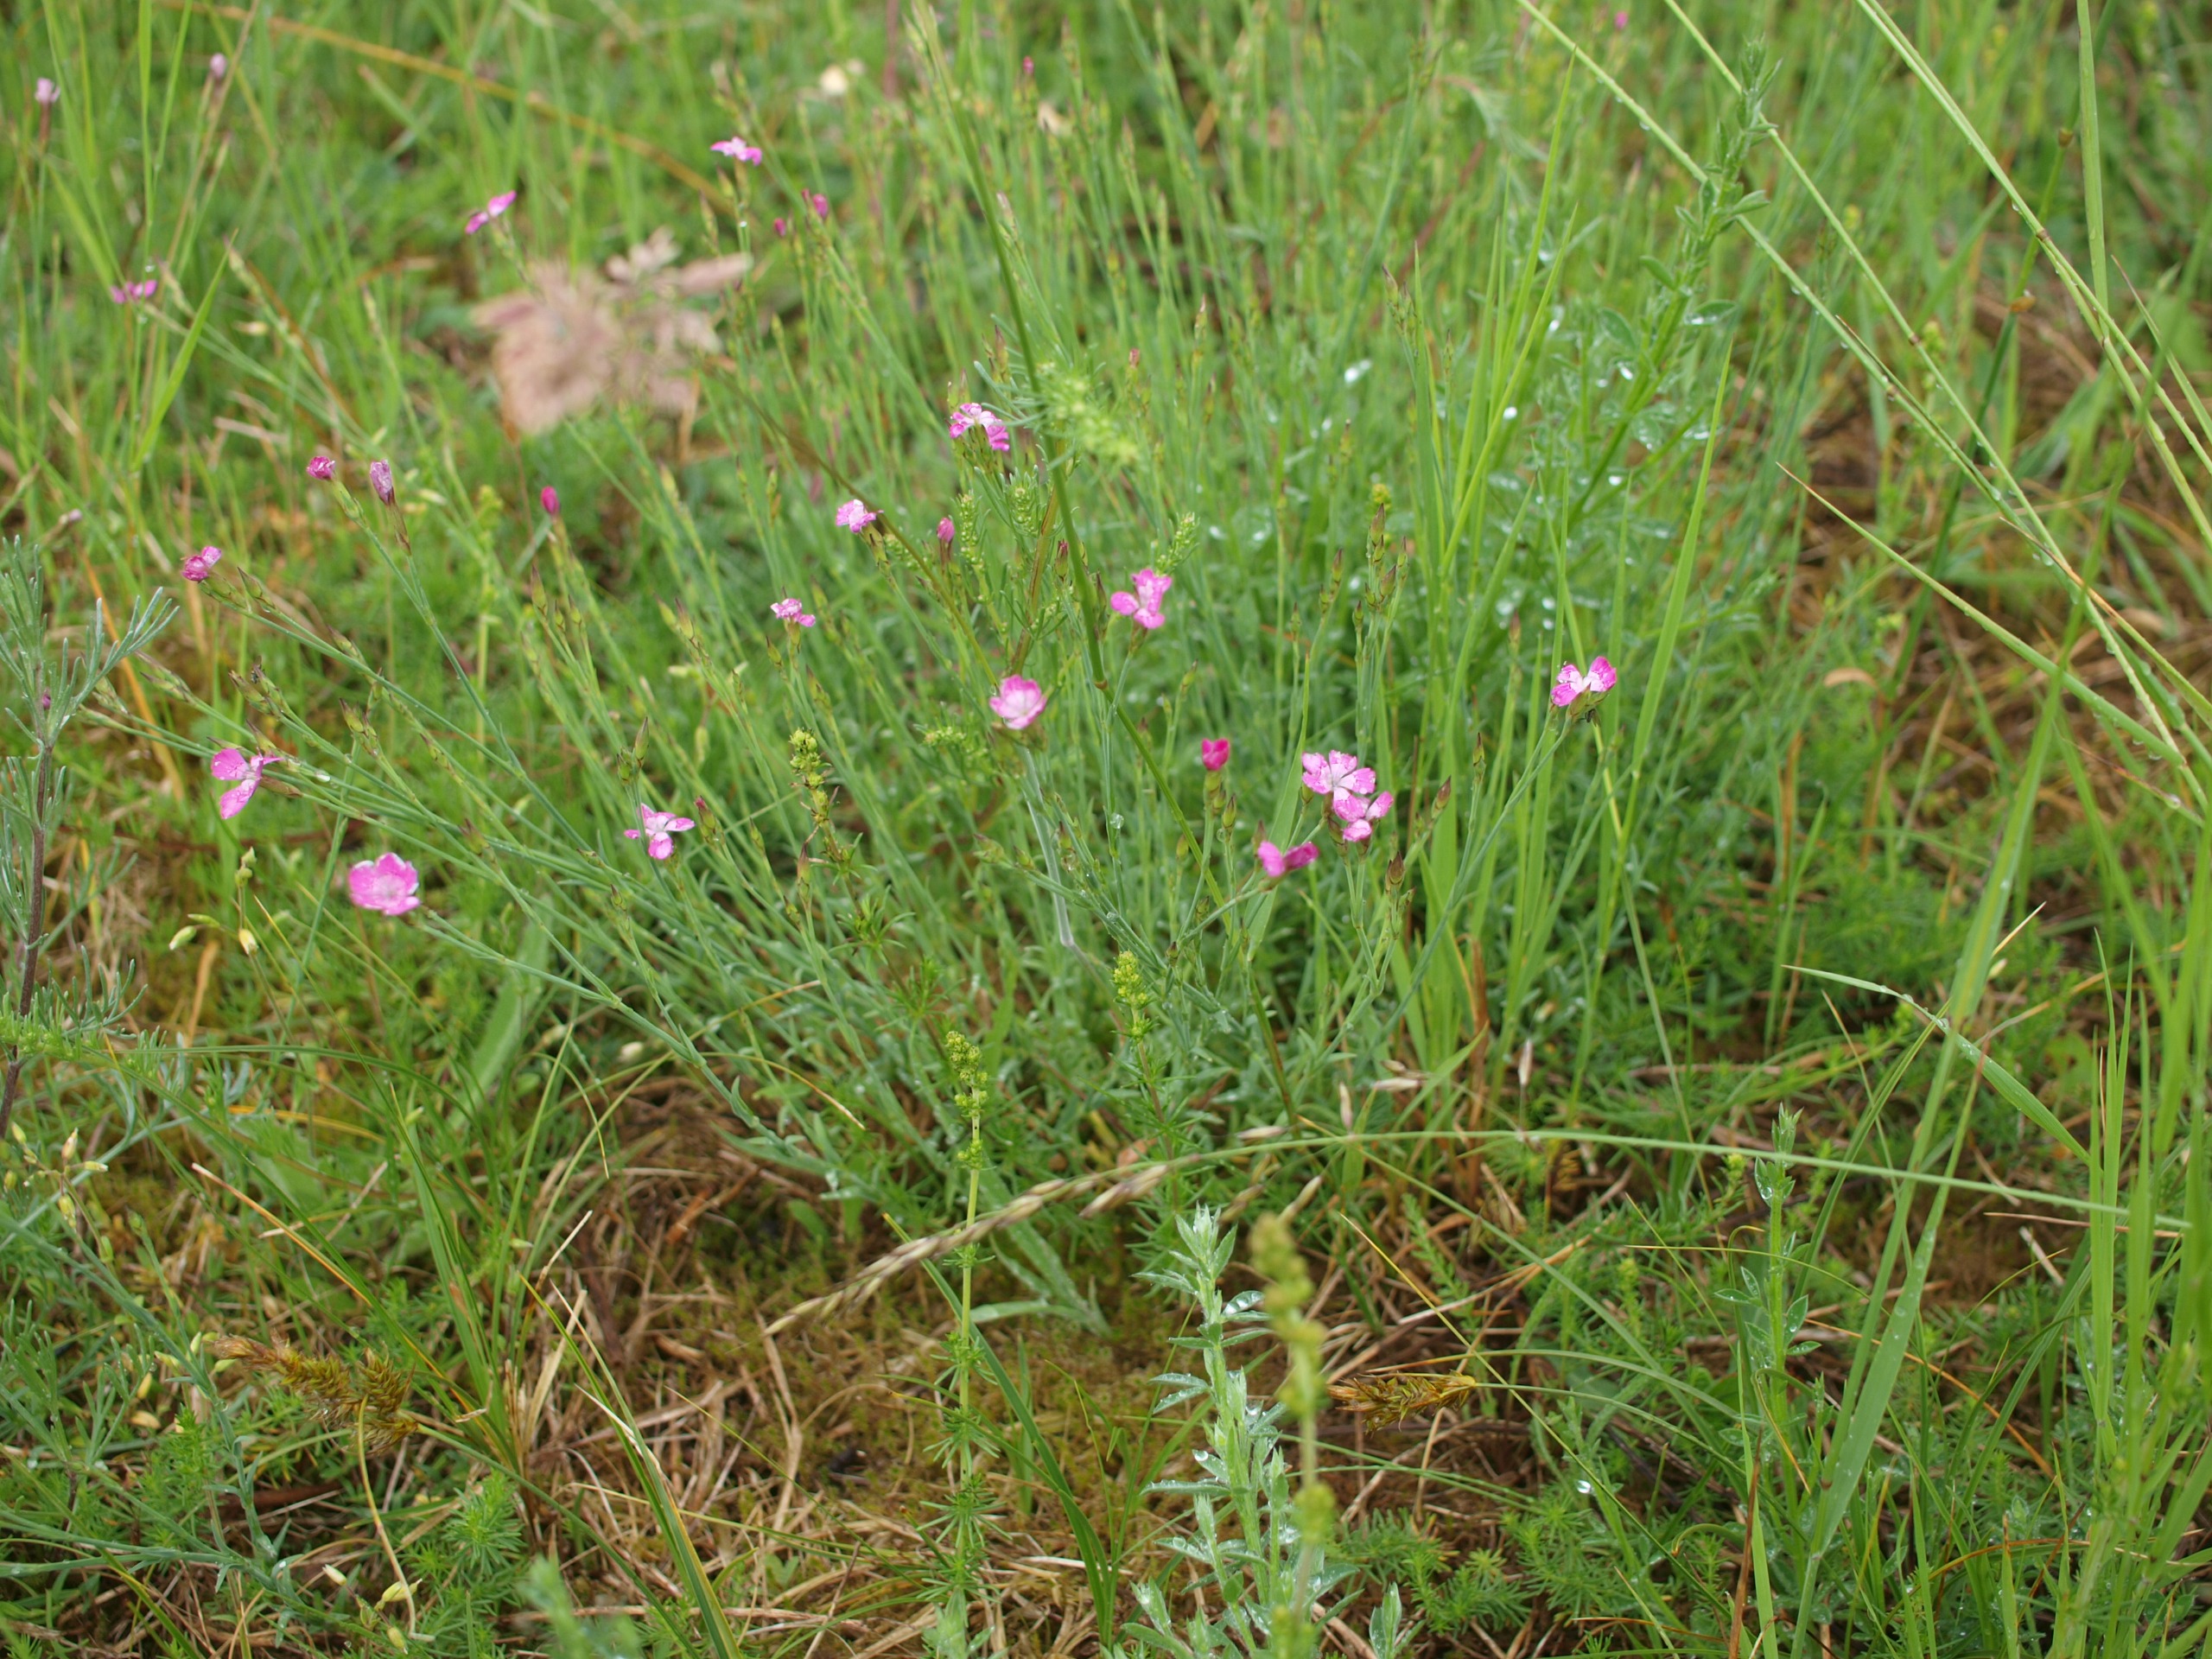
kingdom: Plantae
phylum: Tracheophyta
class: Magnoliopsida
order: Caryophyllales
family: Caryophyllaceae
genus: Dianthus
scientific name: Dianthus deltoides
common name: Bakke-nellike
